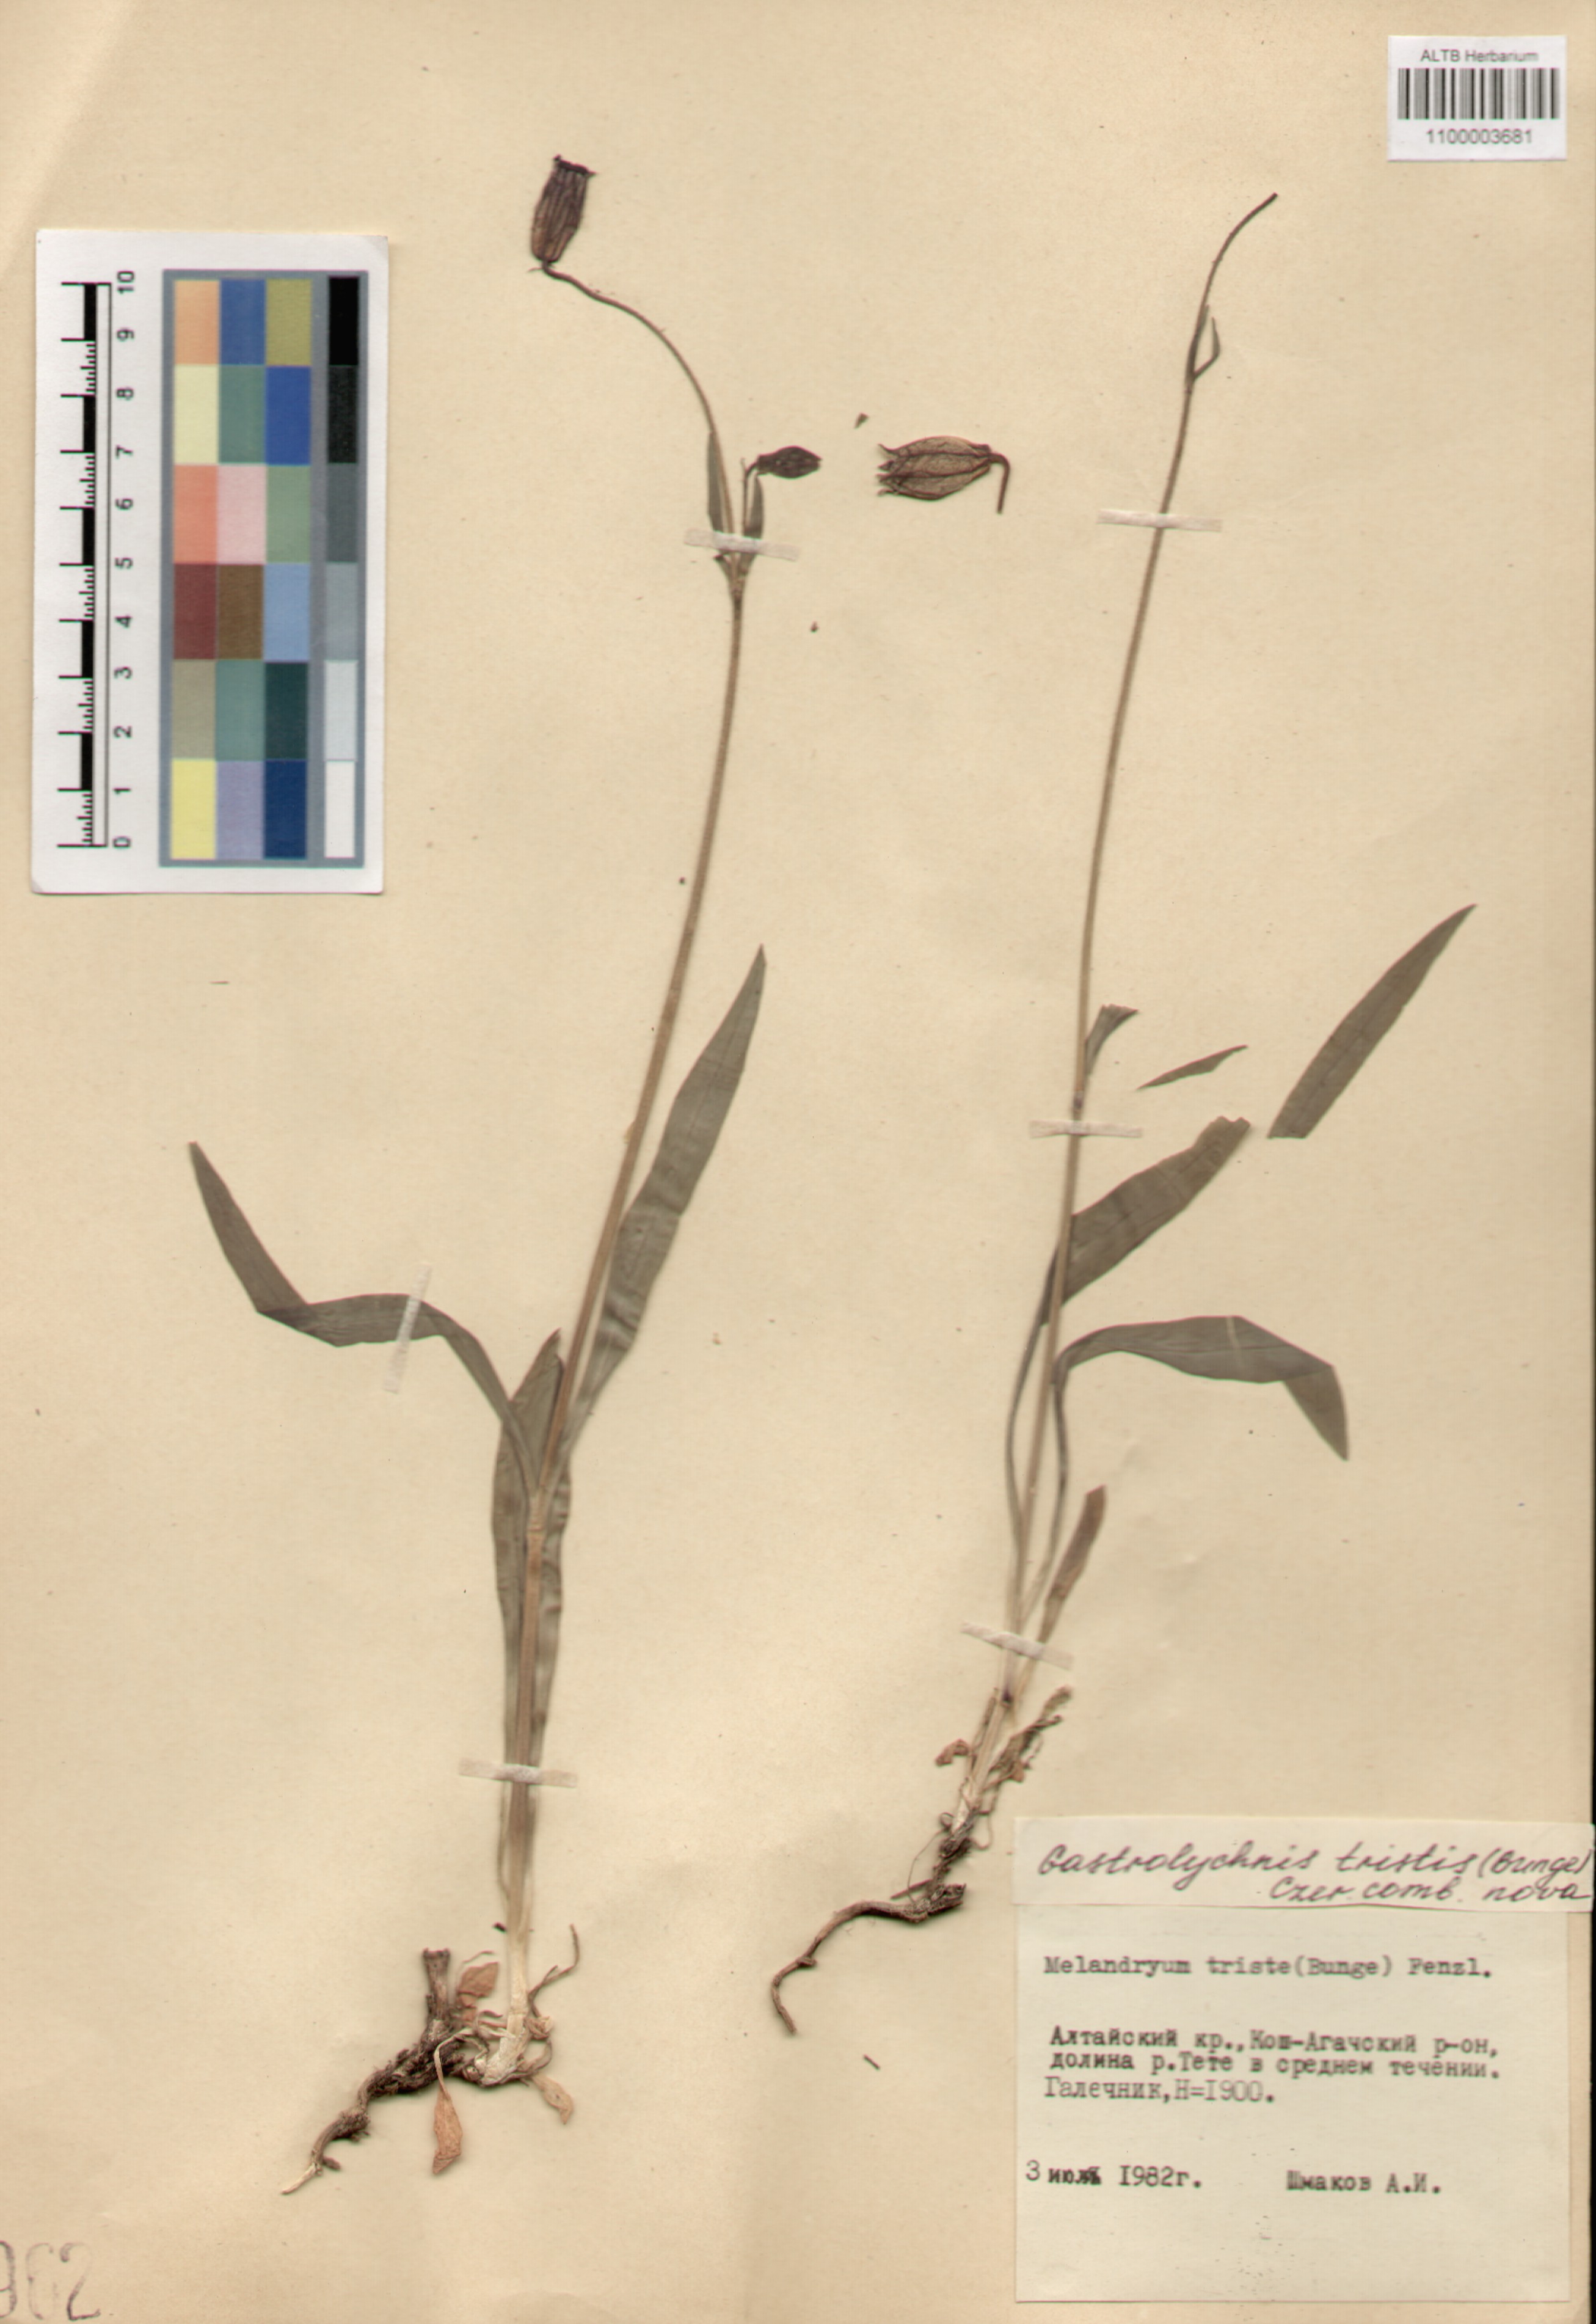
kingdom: Plantae
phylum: Tracheophyta
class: Magnoliopsida
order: Caryophyllales
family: Caryophyllaceae
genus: Silene
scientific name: Silene bungei
